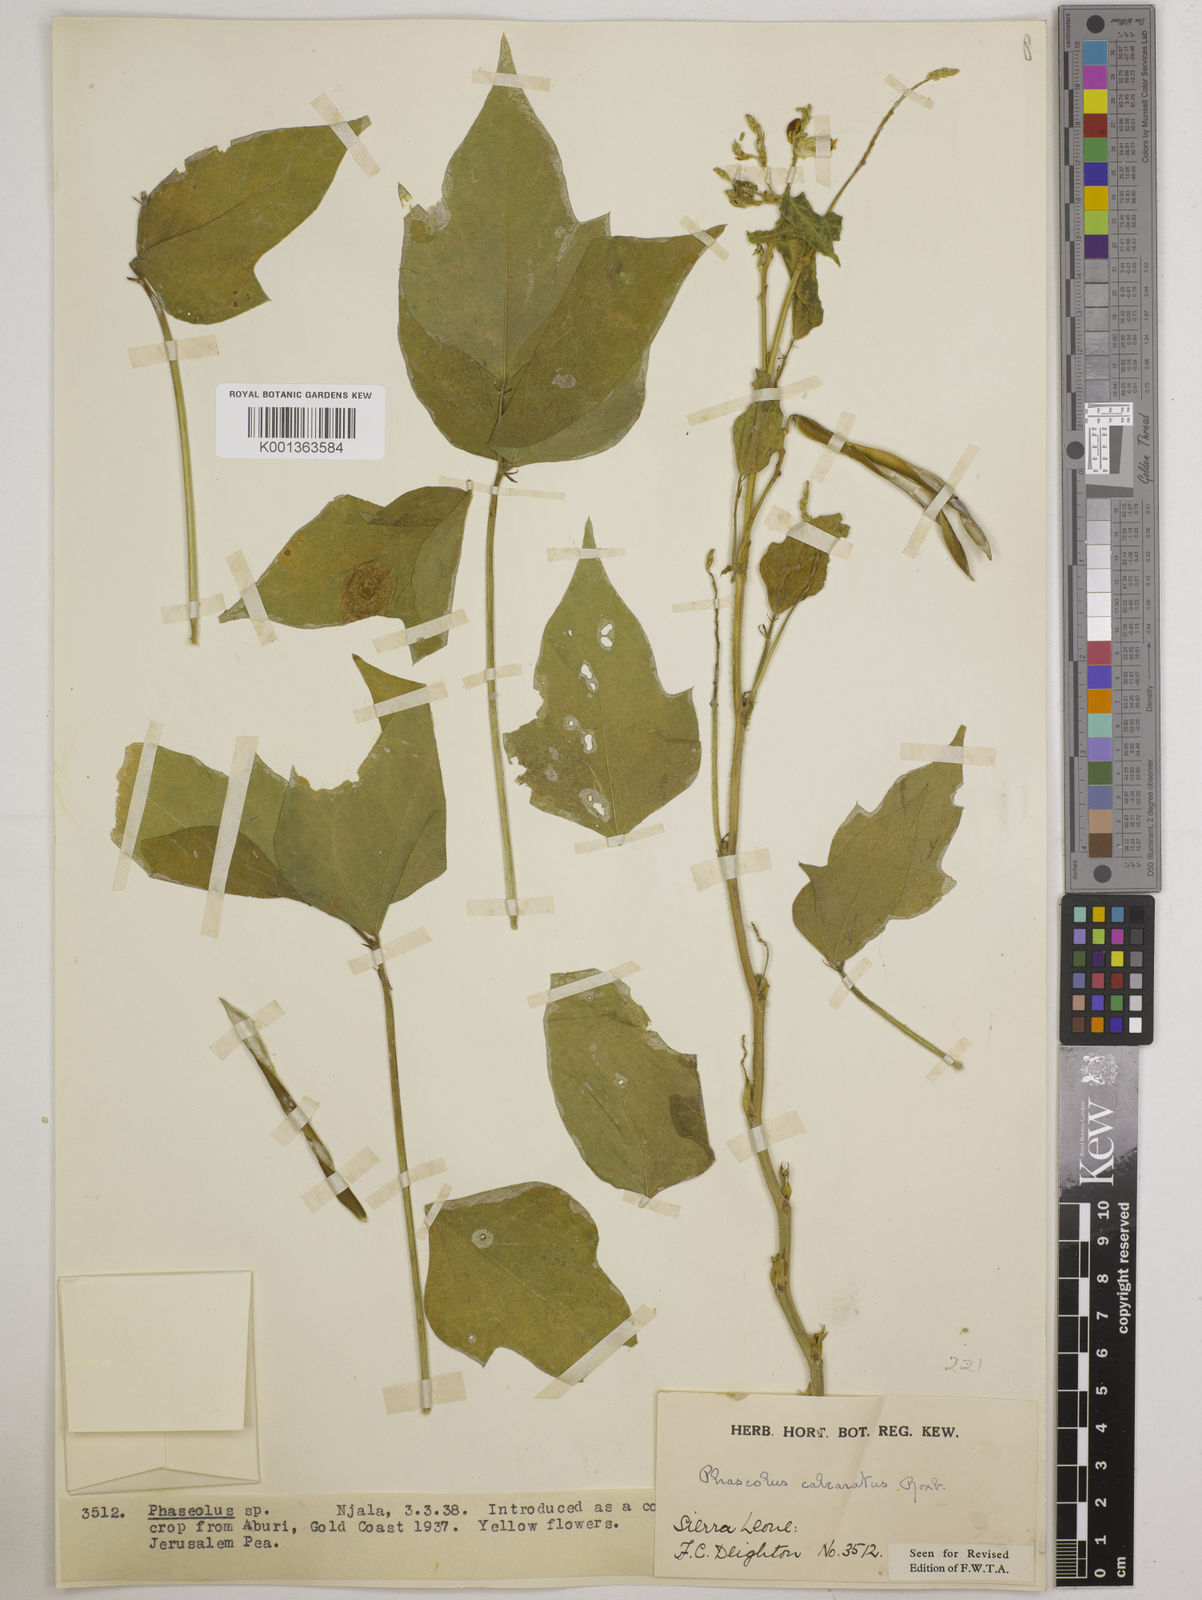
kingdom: Plantae
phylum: Tracheophyta
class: Magnoliopsida
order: Fabales
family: Fabaceae
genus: Vigna
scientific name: Vigna umbellata
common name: Oriental-bean
